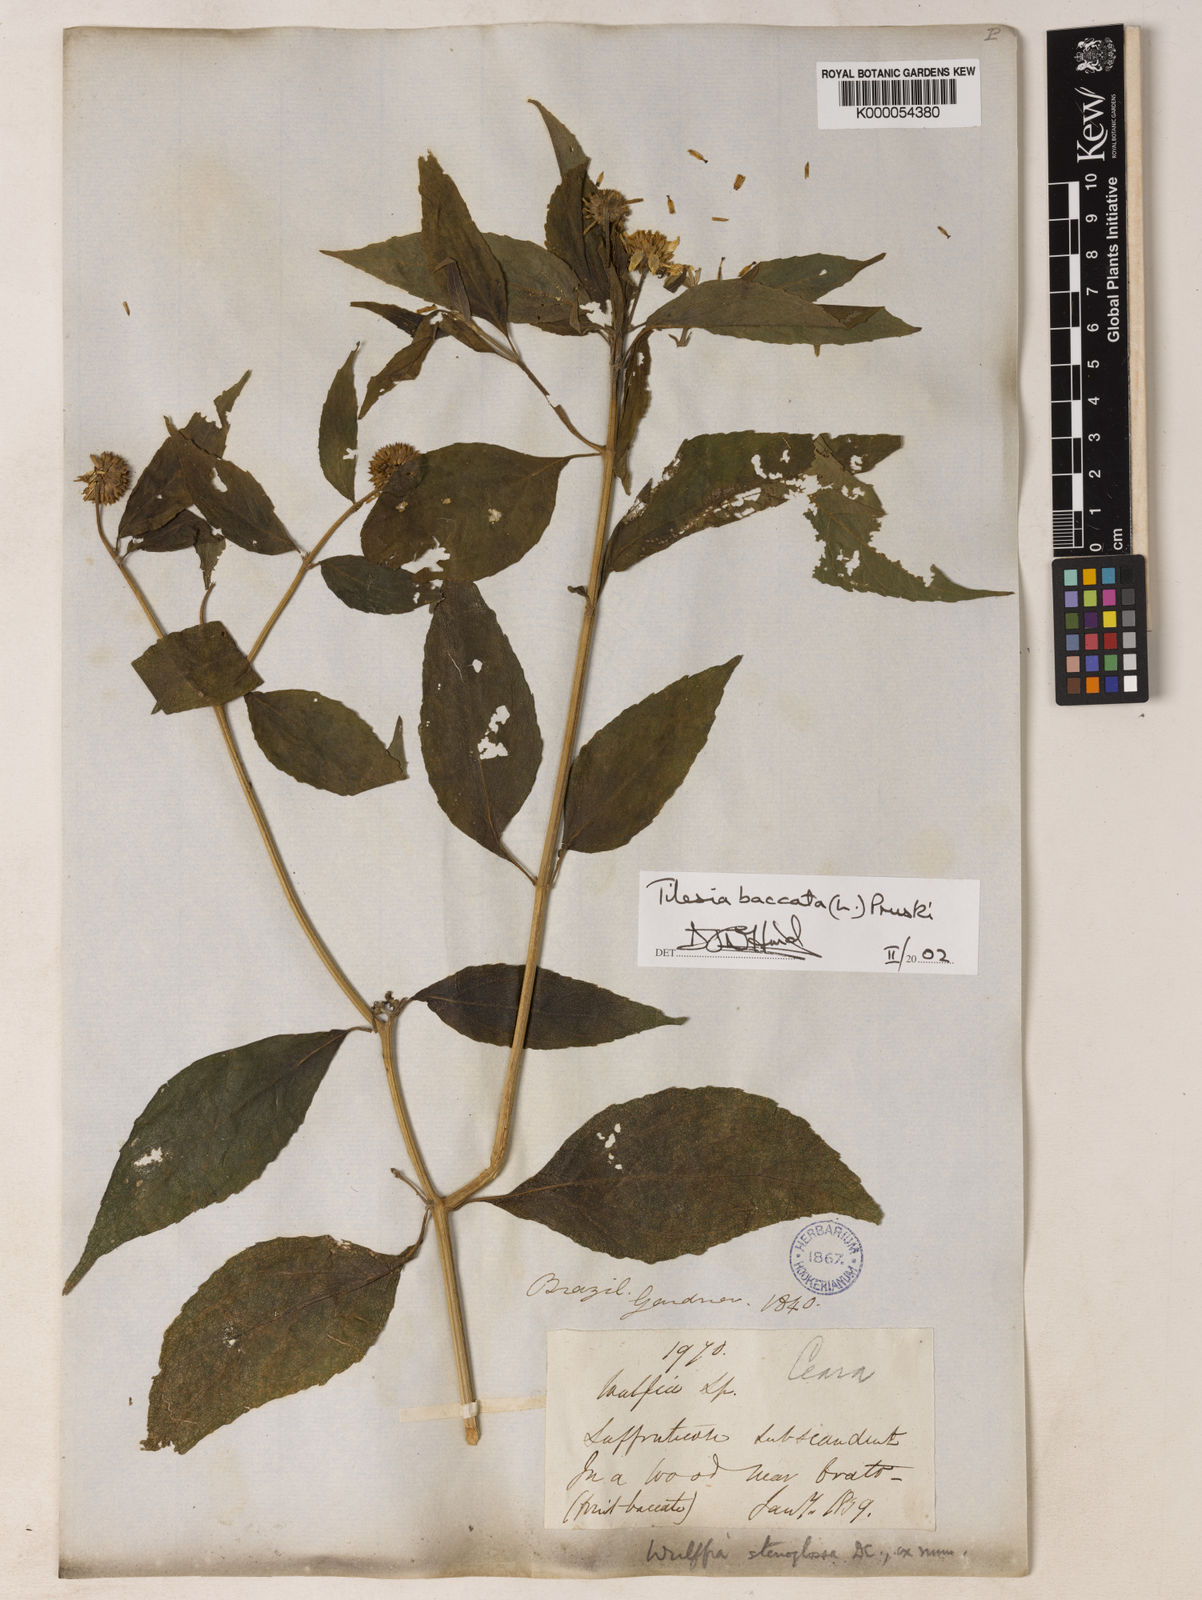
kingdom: Plantae
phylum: Tracheophyta
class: Magnoliopsida
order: Asterales
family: Asteraceae
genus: Tilesia
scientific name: Tilesia baccata
